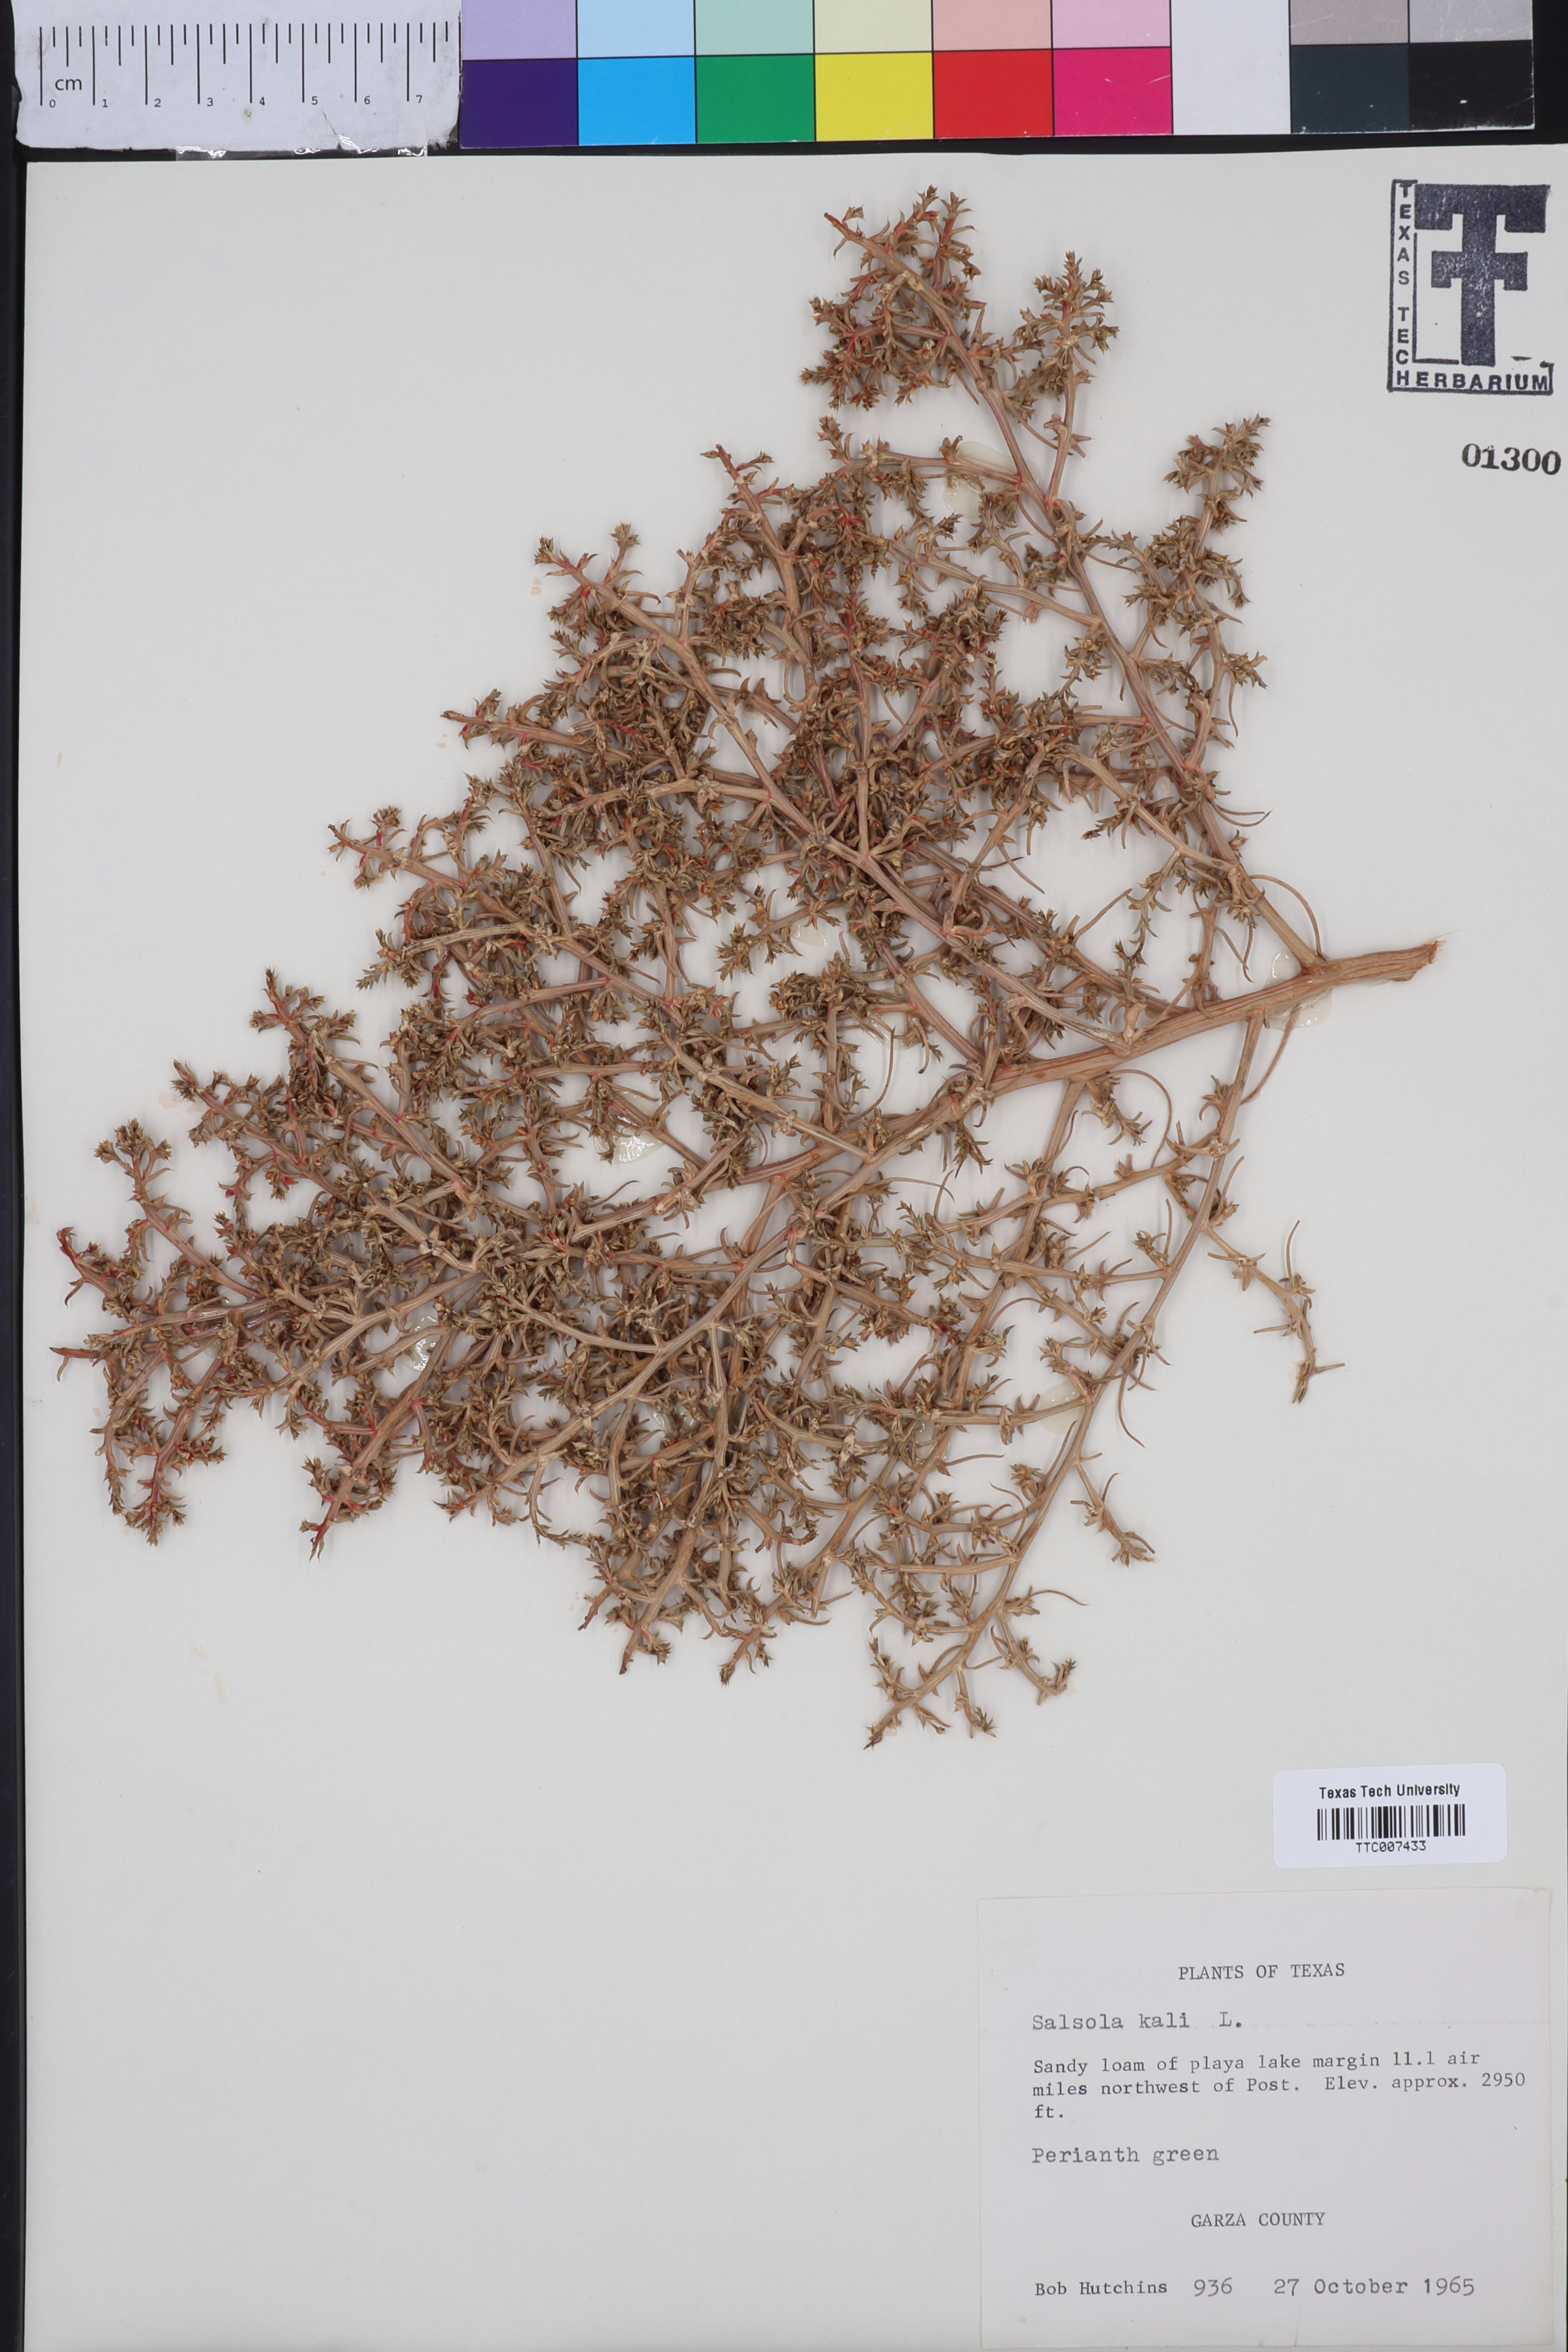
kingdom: Plantae
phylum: Tracheophyta
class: Magnoliopsida
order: Caryophyllales
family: Amaranthaceae
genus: Salsola
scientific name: Salsola kali
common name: Saltwort
